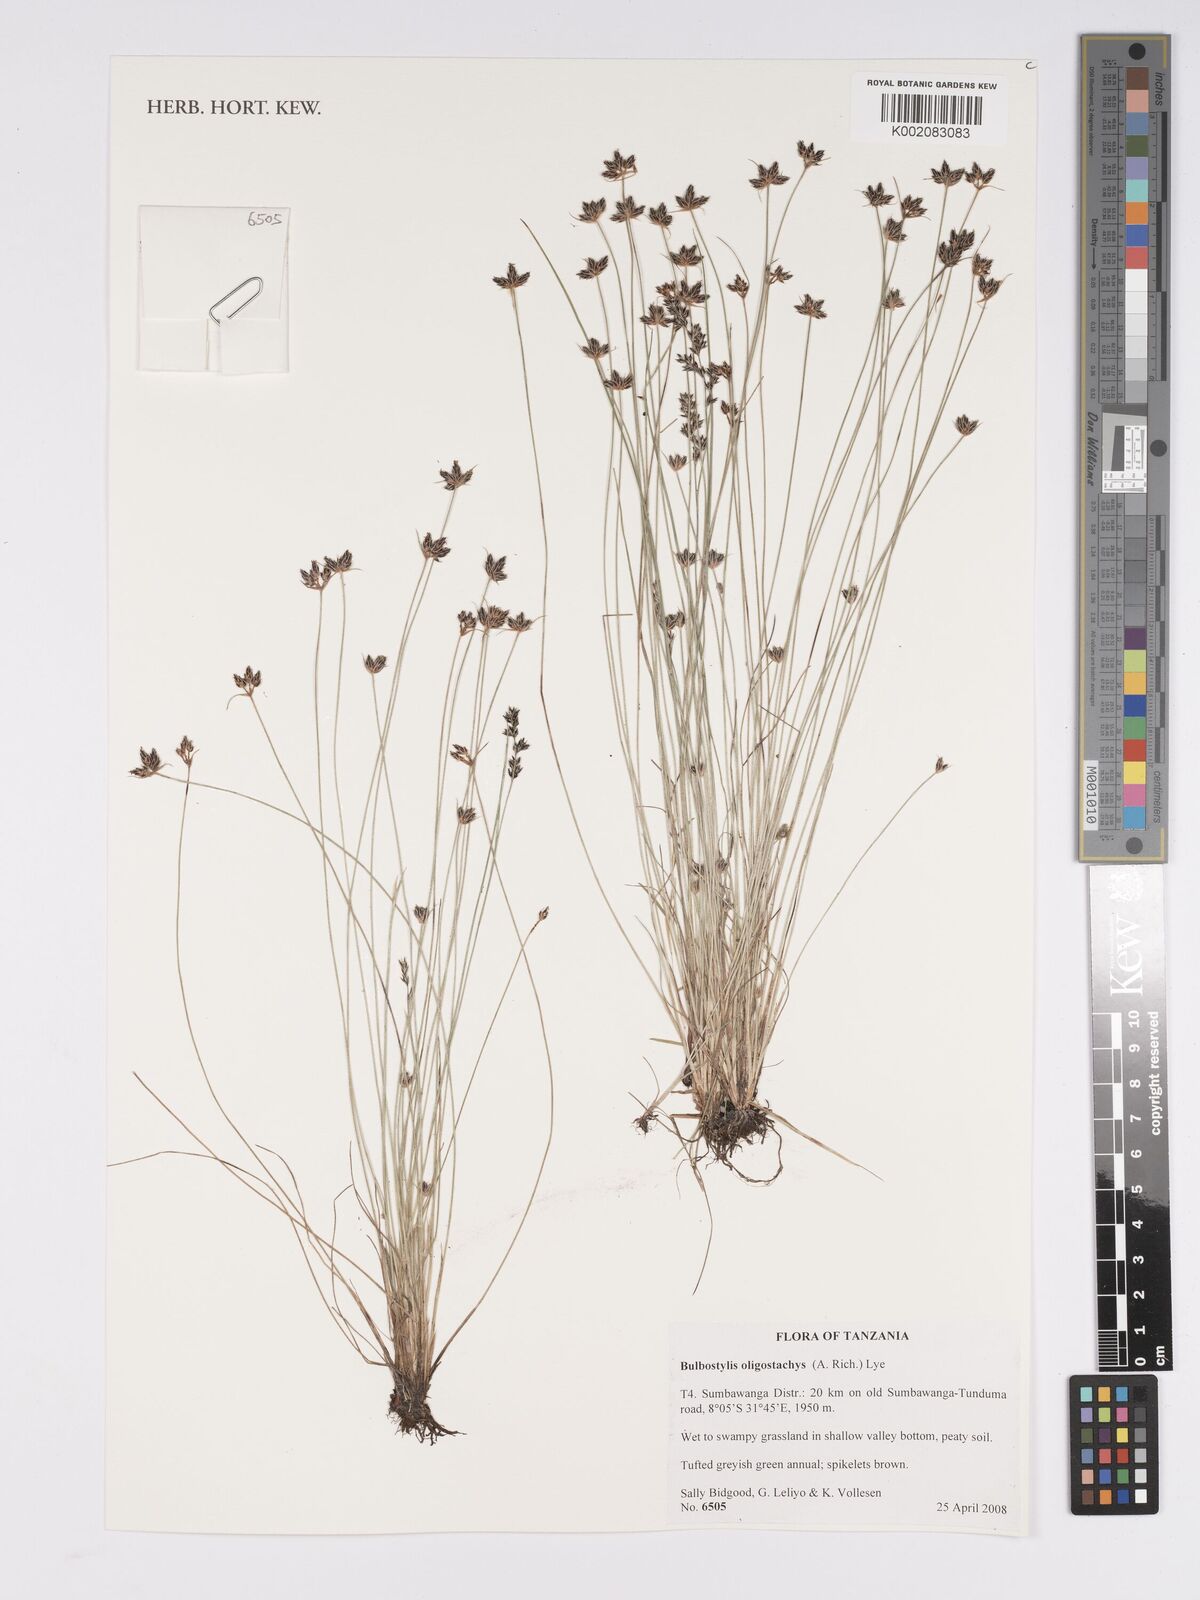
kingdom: Plantae
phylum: Tracheophyta
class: Liliopsida
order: Poales
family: Cyperaceae
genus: Bulbostylis
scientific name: Bulbostylis oligostachys
